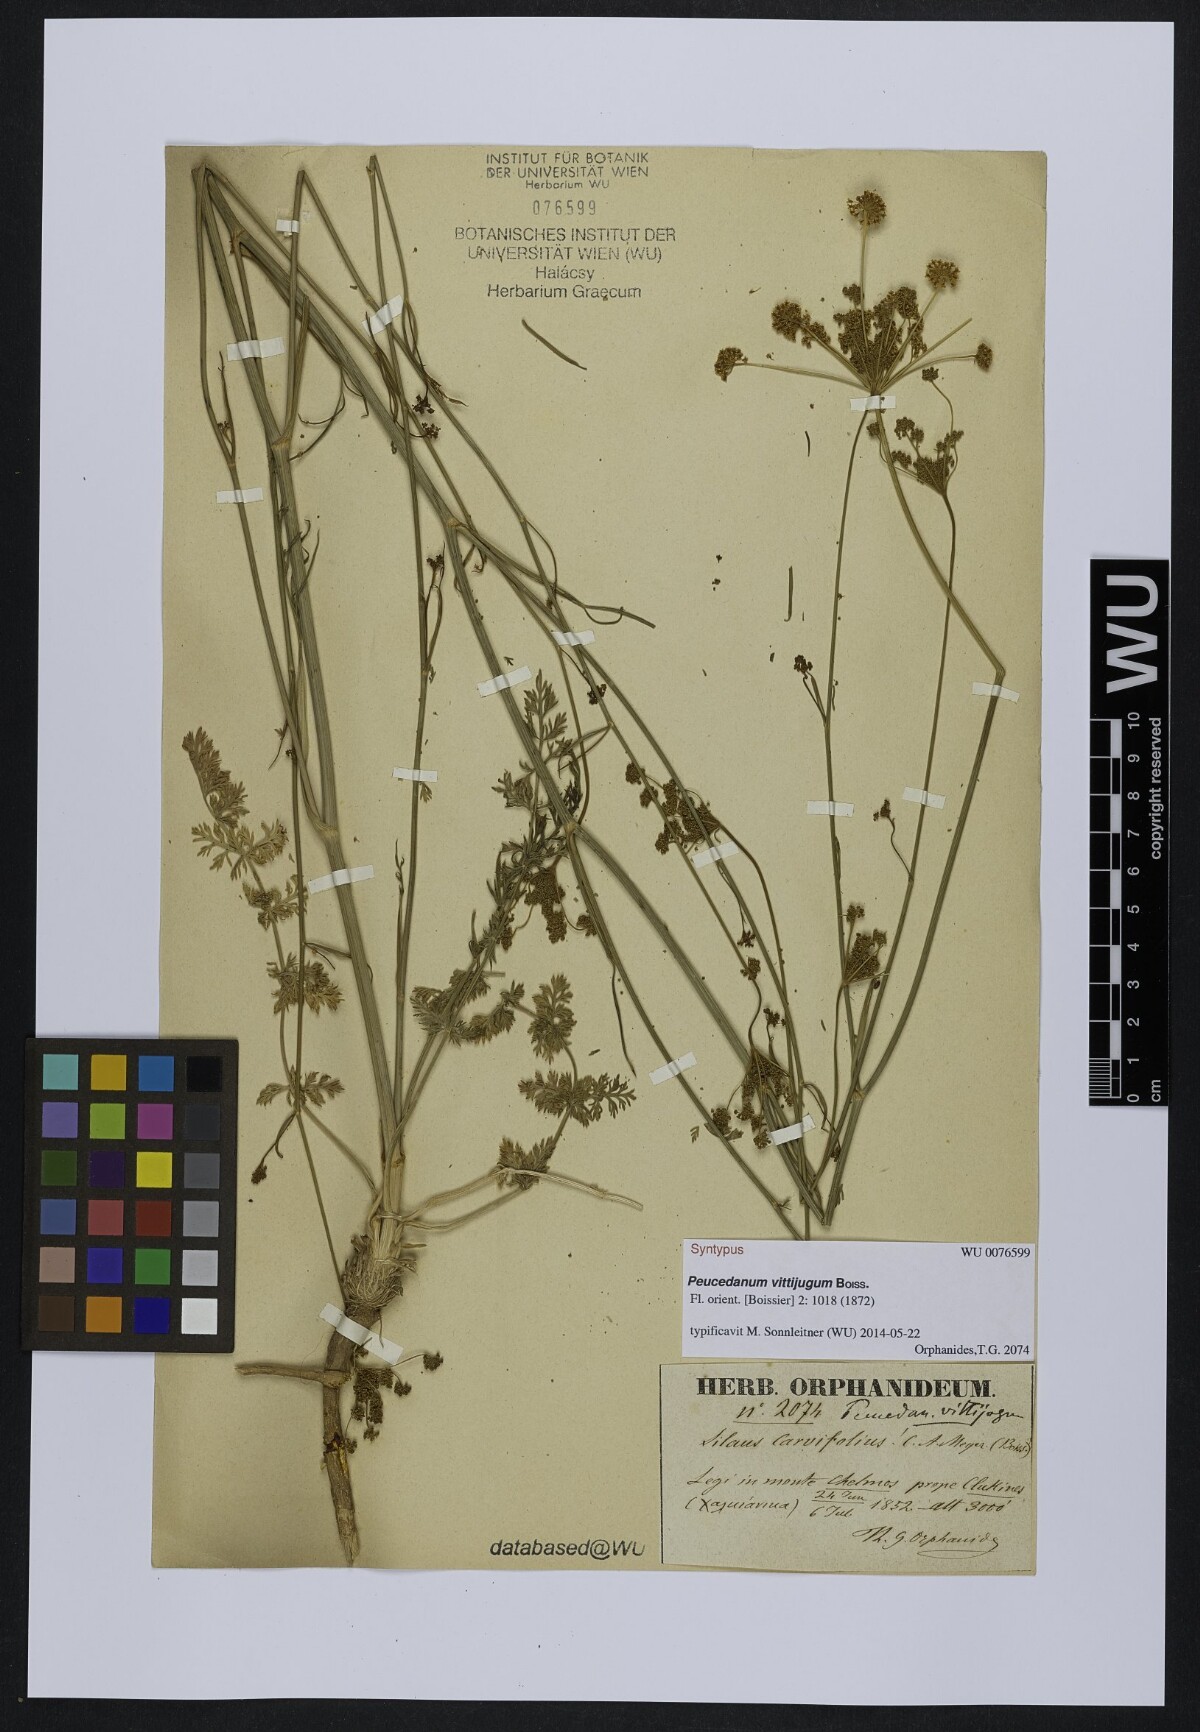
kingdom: Plantae
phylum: Tracheophyta
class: Magnoliopsida
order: Apiales
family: Apiaceae
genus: Dichoropetalum
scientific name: Dichoropetalum vittijugum
